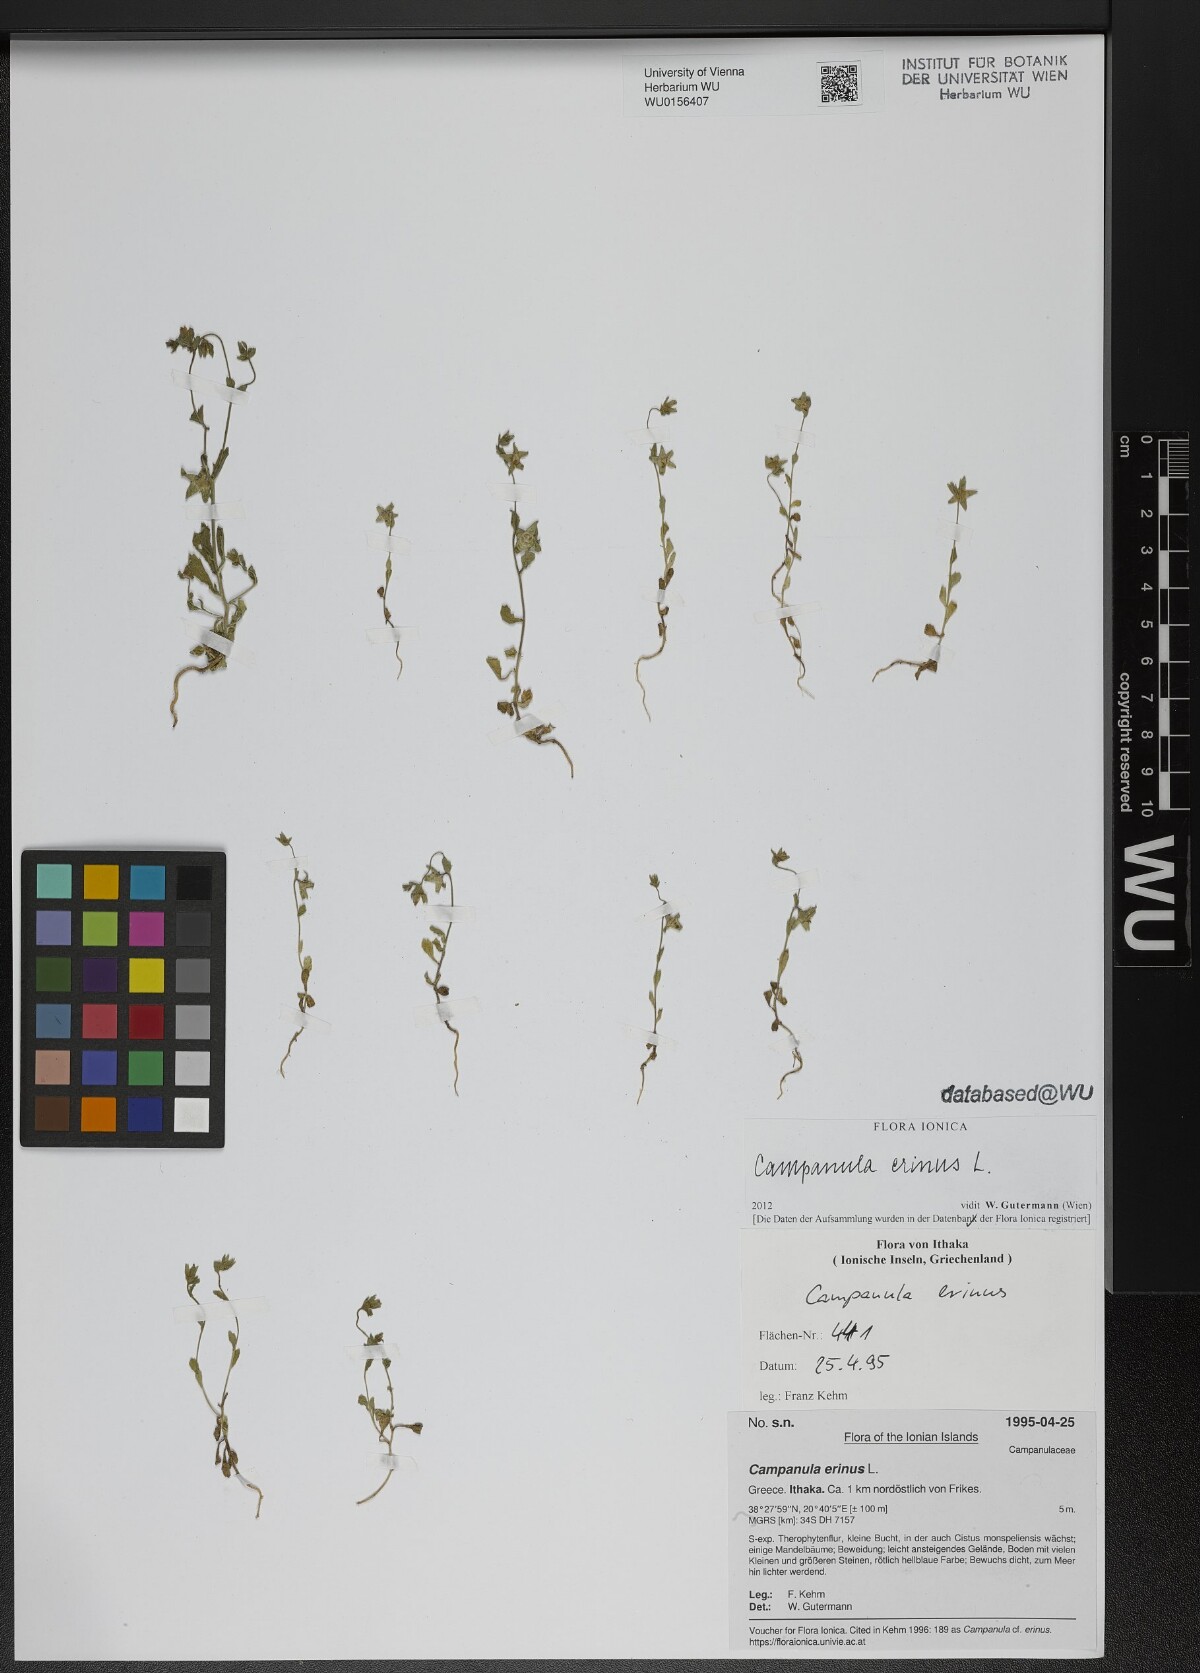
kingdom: Plantae
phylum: Tracheophyta
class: Magnoliopsida
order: Asterales
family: Campanulaceae
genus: Campanula
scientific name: Campanula erinus
